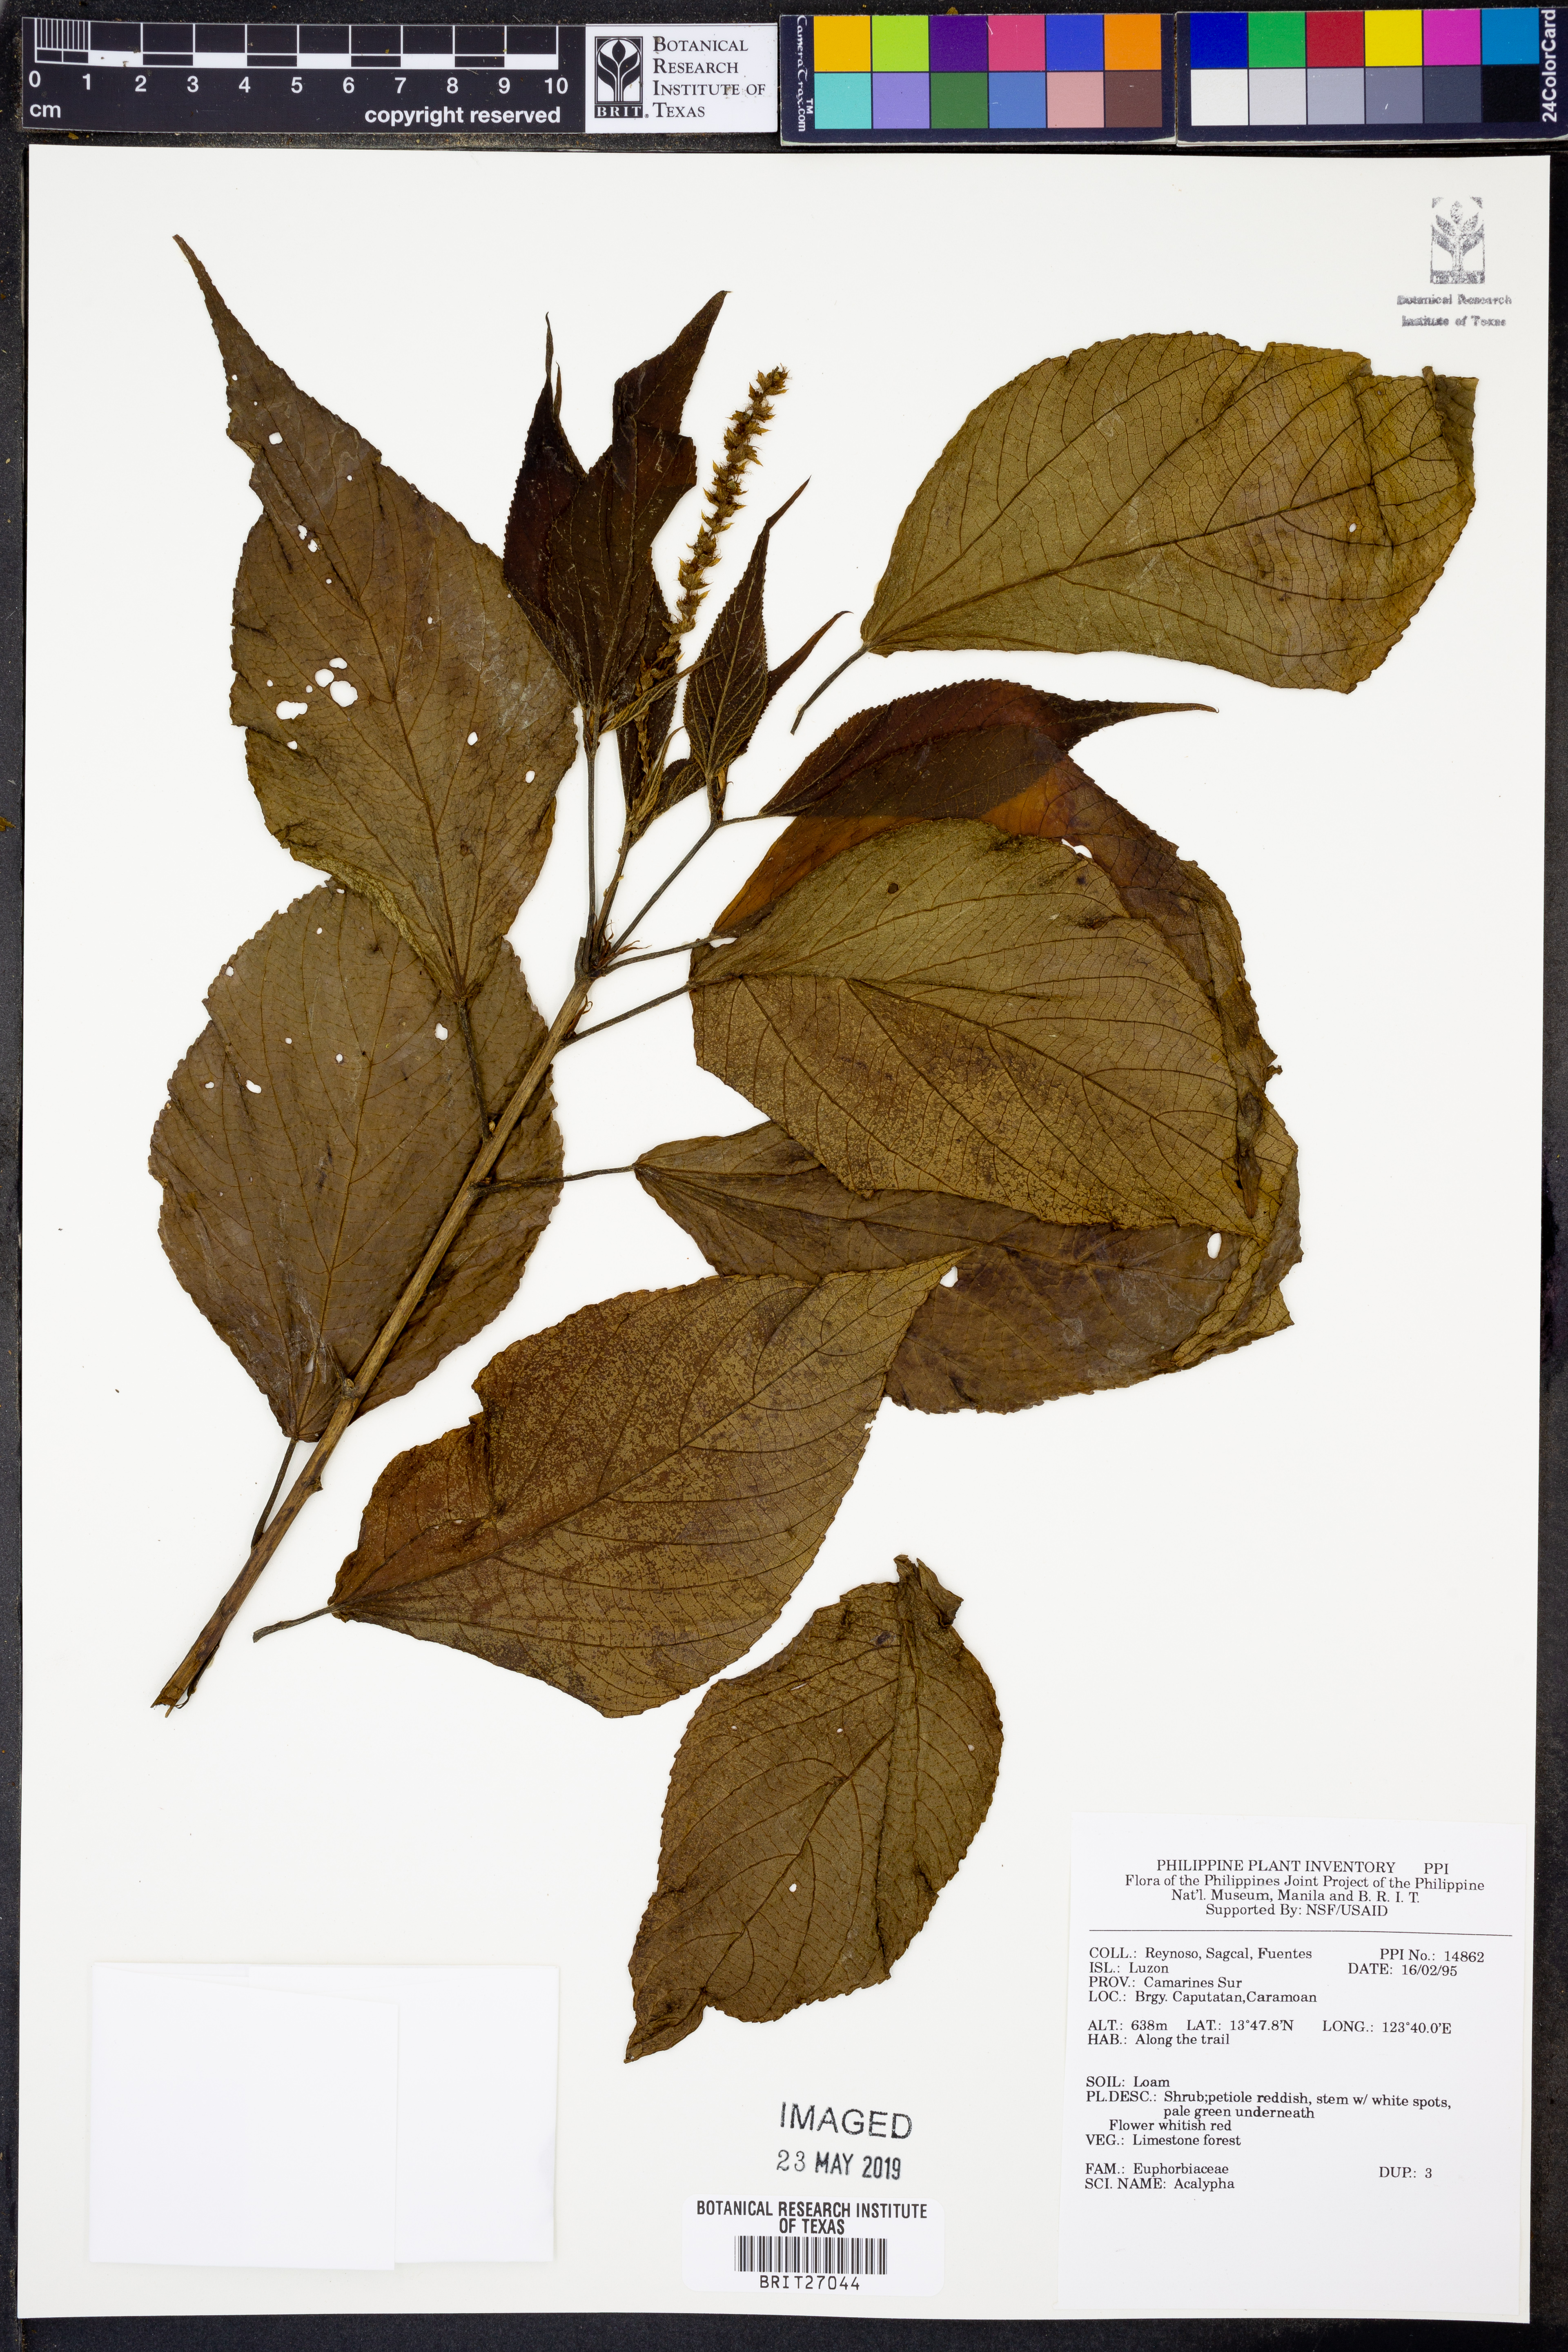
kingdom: Plantae
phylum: Tracheophyta
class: Magnoliopsida
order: Malpighiales
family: Euphorbiaceae
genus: Acalypha
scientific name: Acalypha
